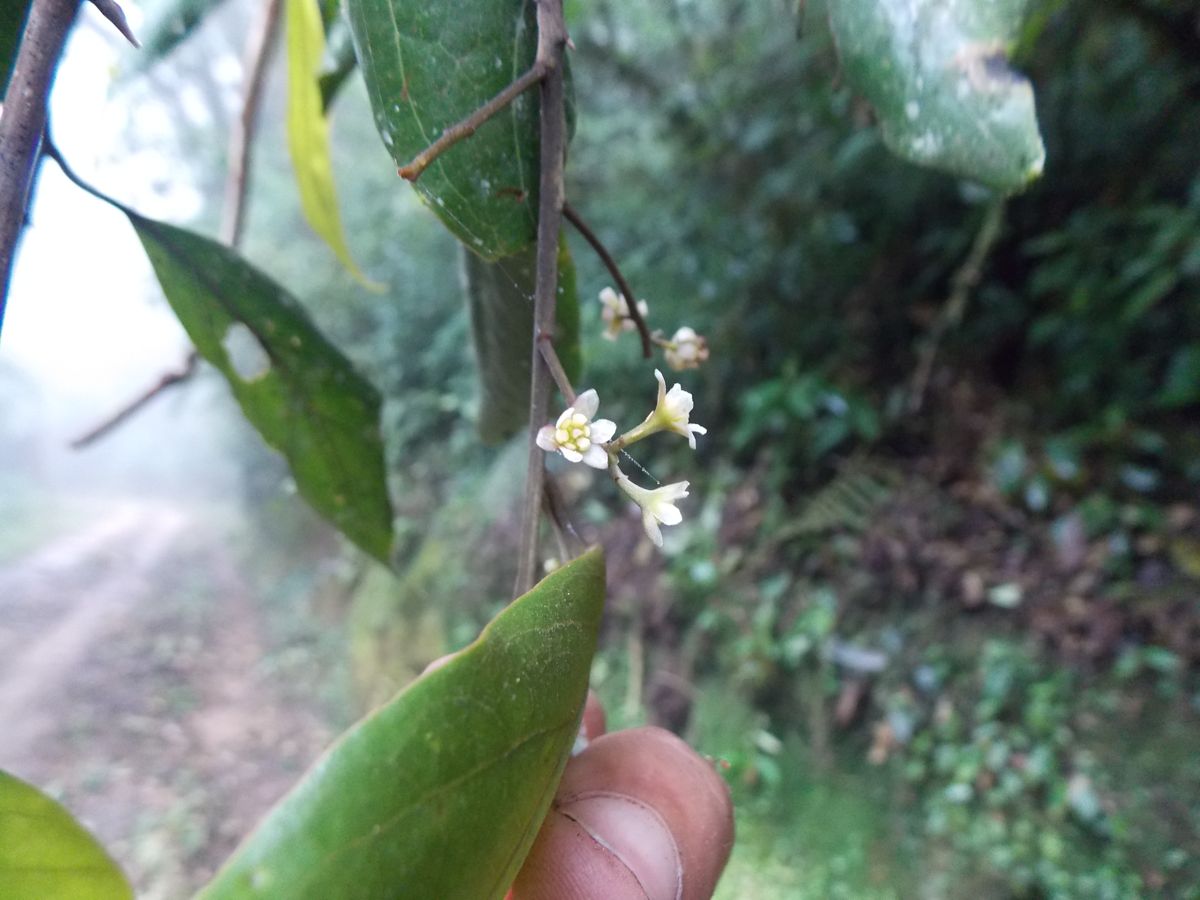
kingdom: Plantae
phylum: Tracheophyta
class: Magnoliopsida
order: Laurales
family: Lauraceae
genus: Ocotea
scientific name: Ocotea salvadorensis
